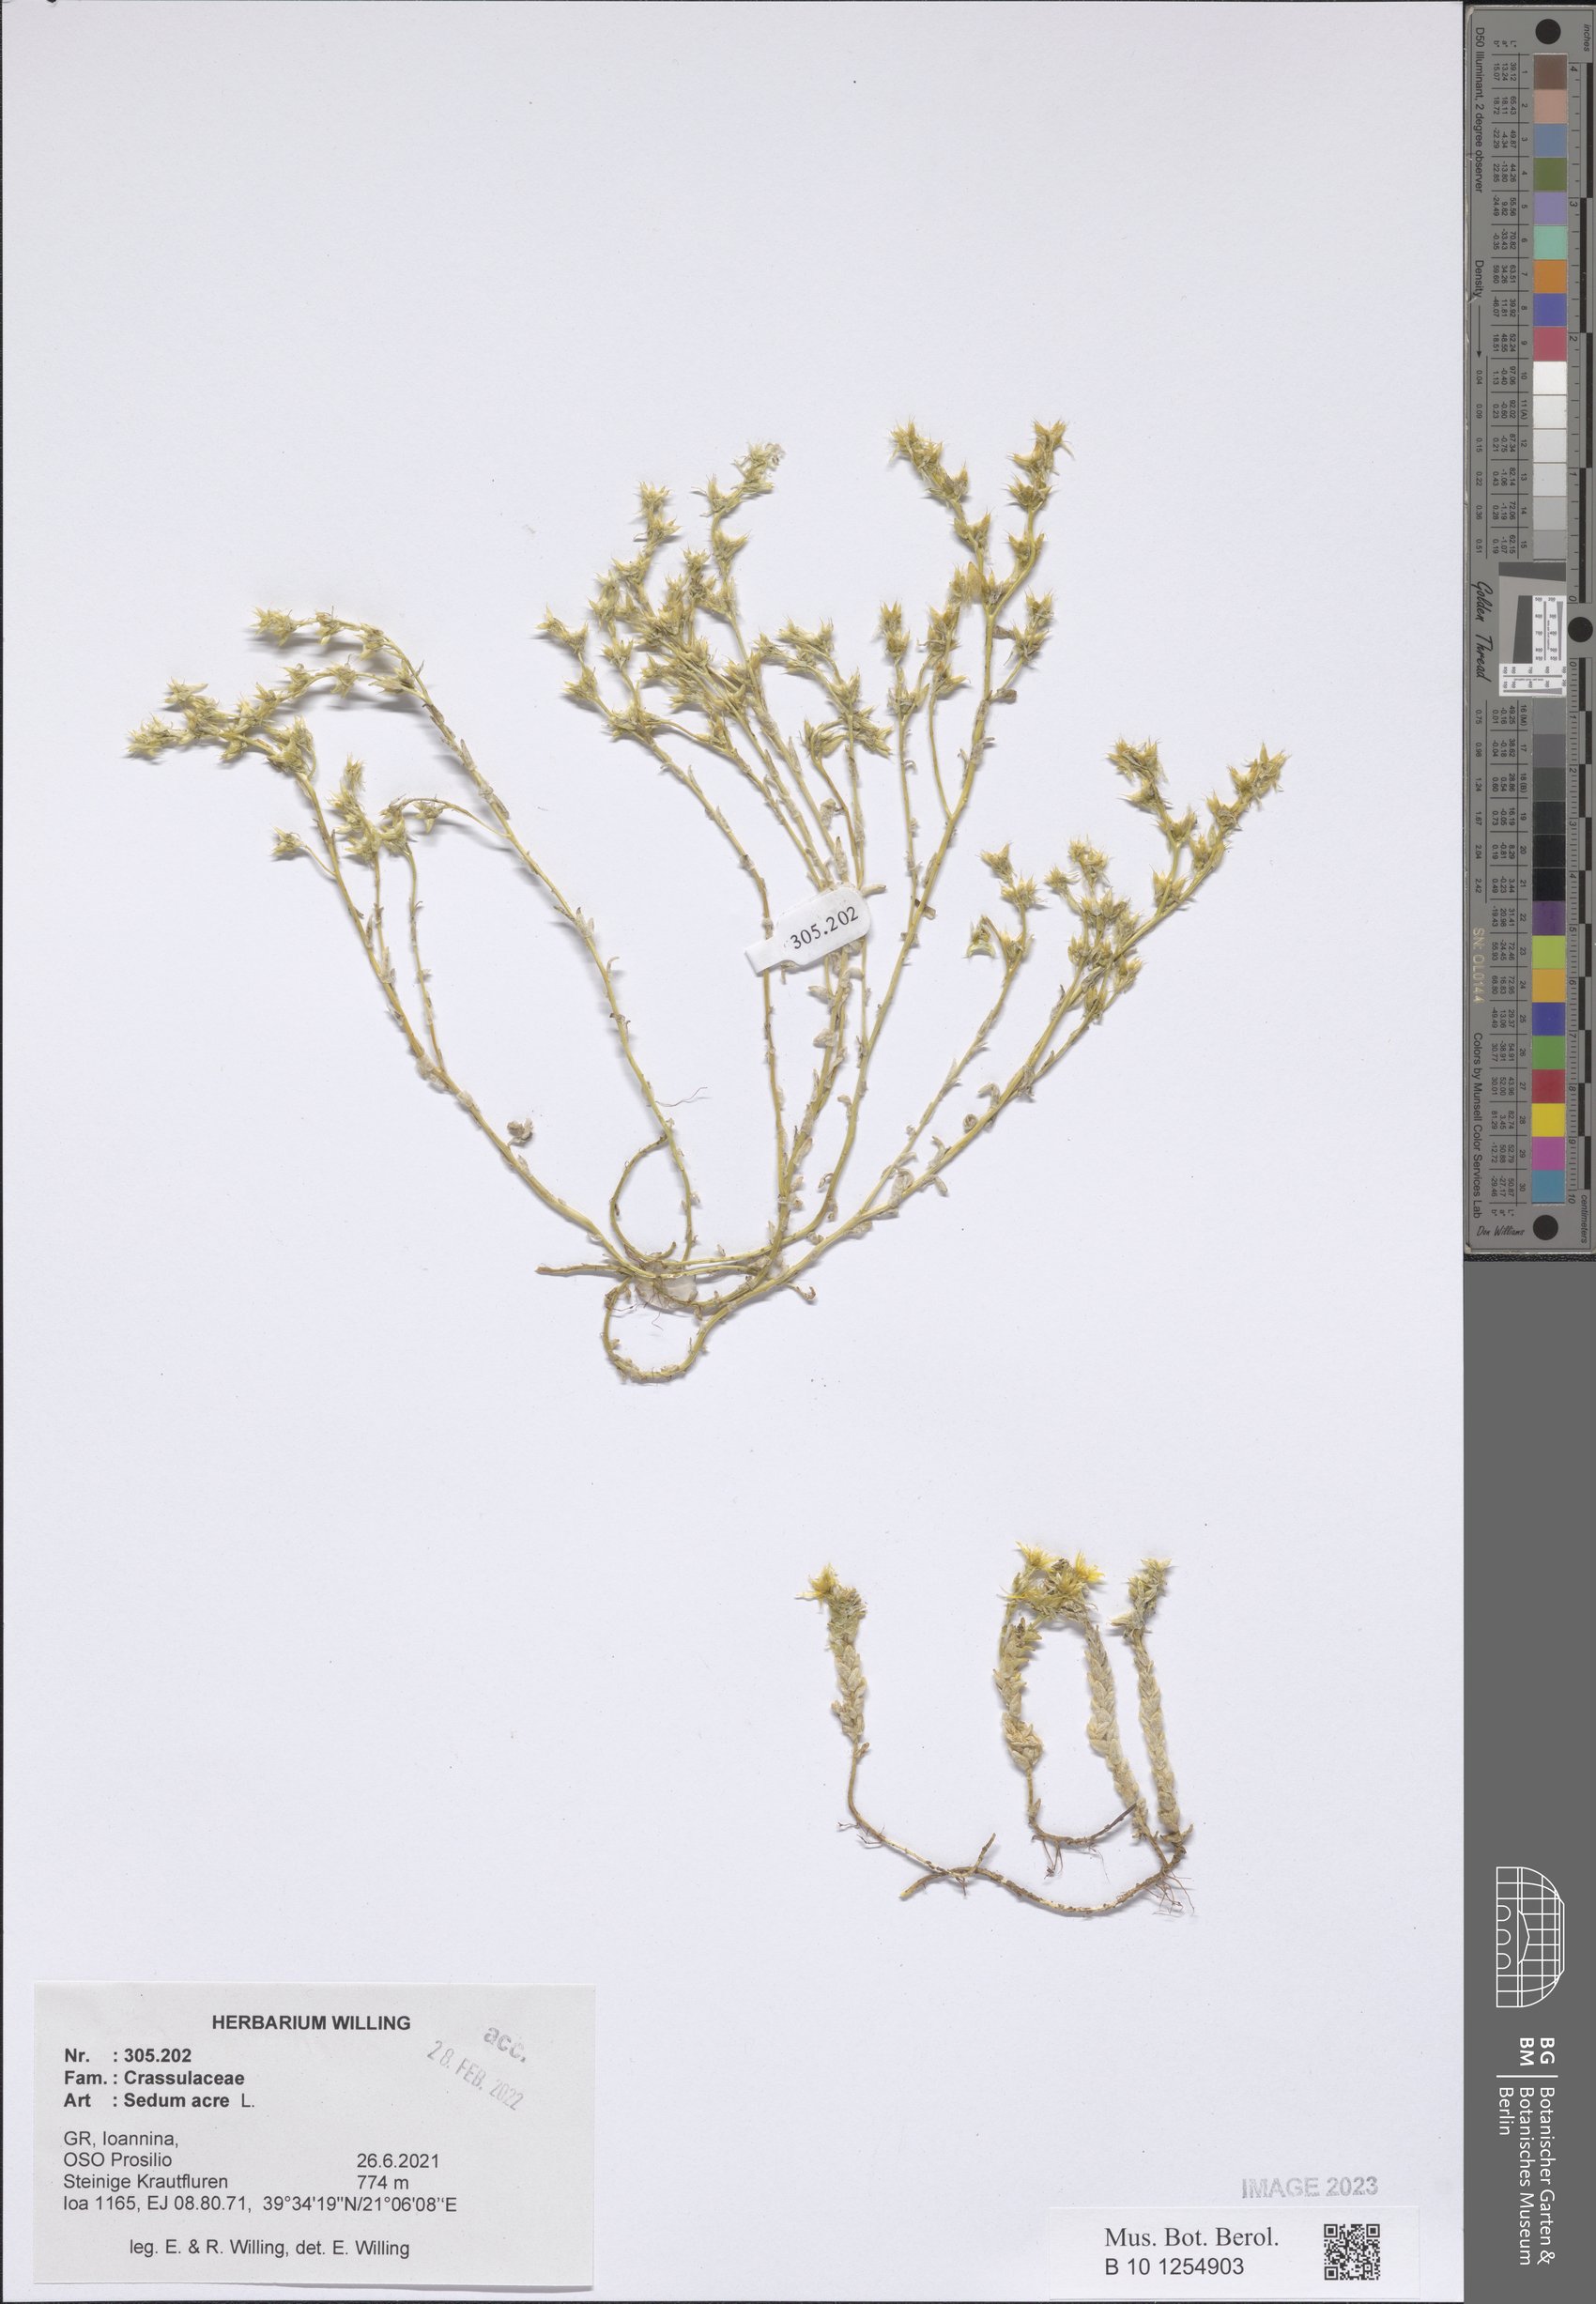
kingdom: Plantae
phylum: Tracheophyta
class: Magnoliopsida
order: Saxifragales
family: Crassulaceae
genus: Sedum
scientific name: Sedum acre
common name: Biting stonecrop
